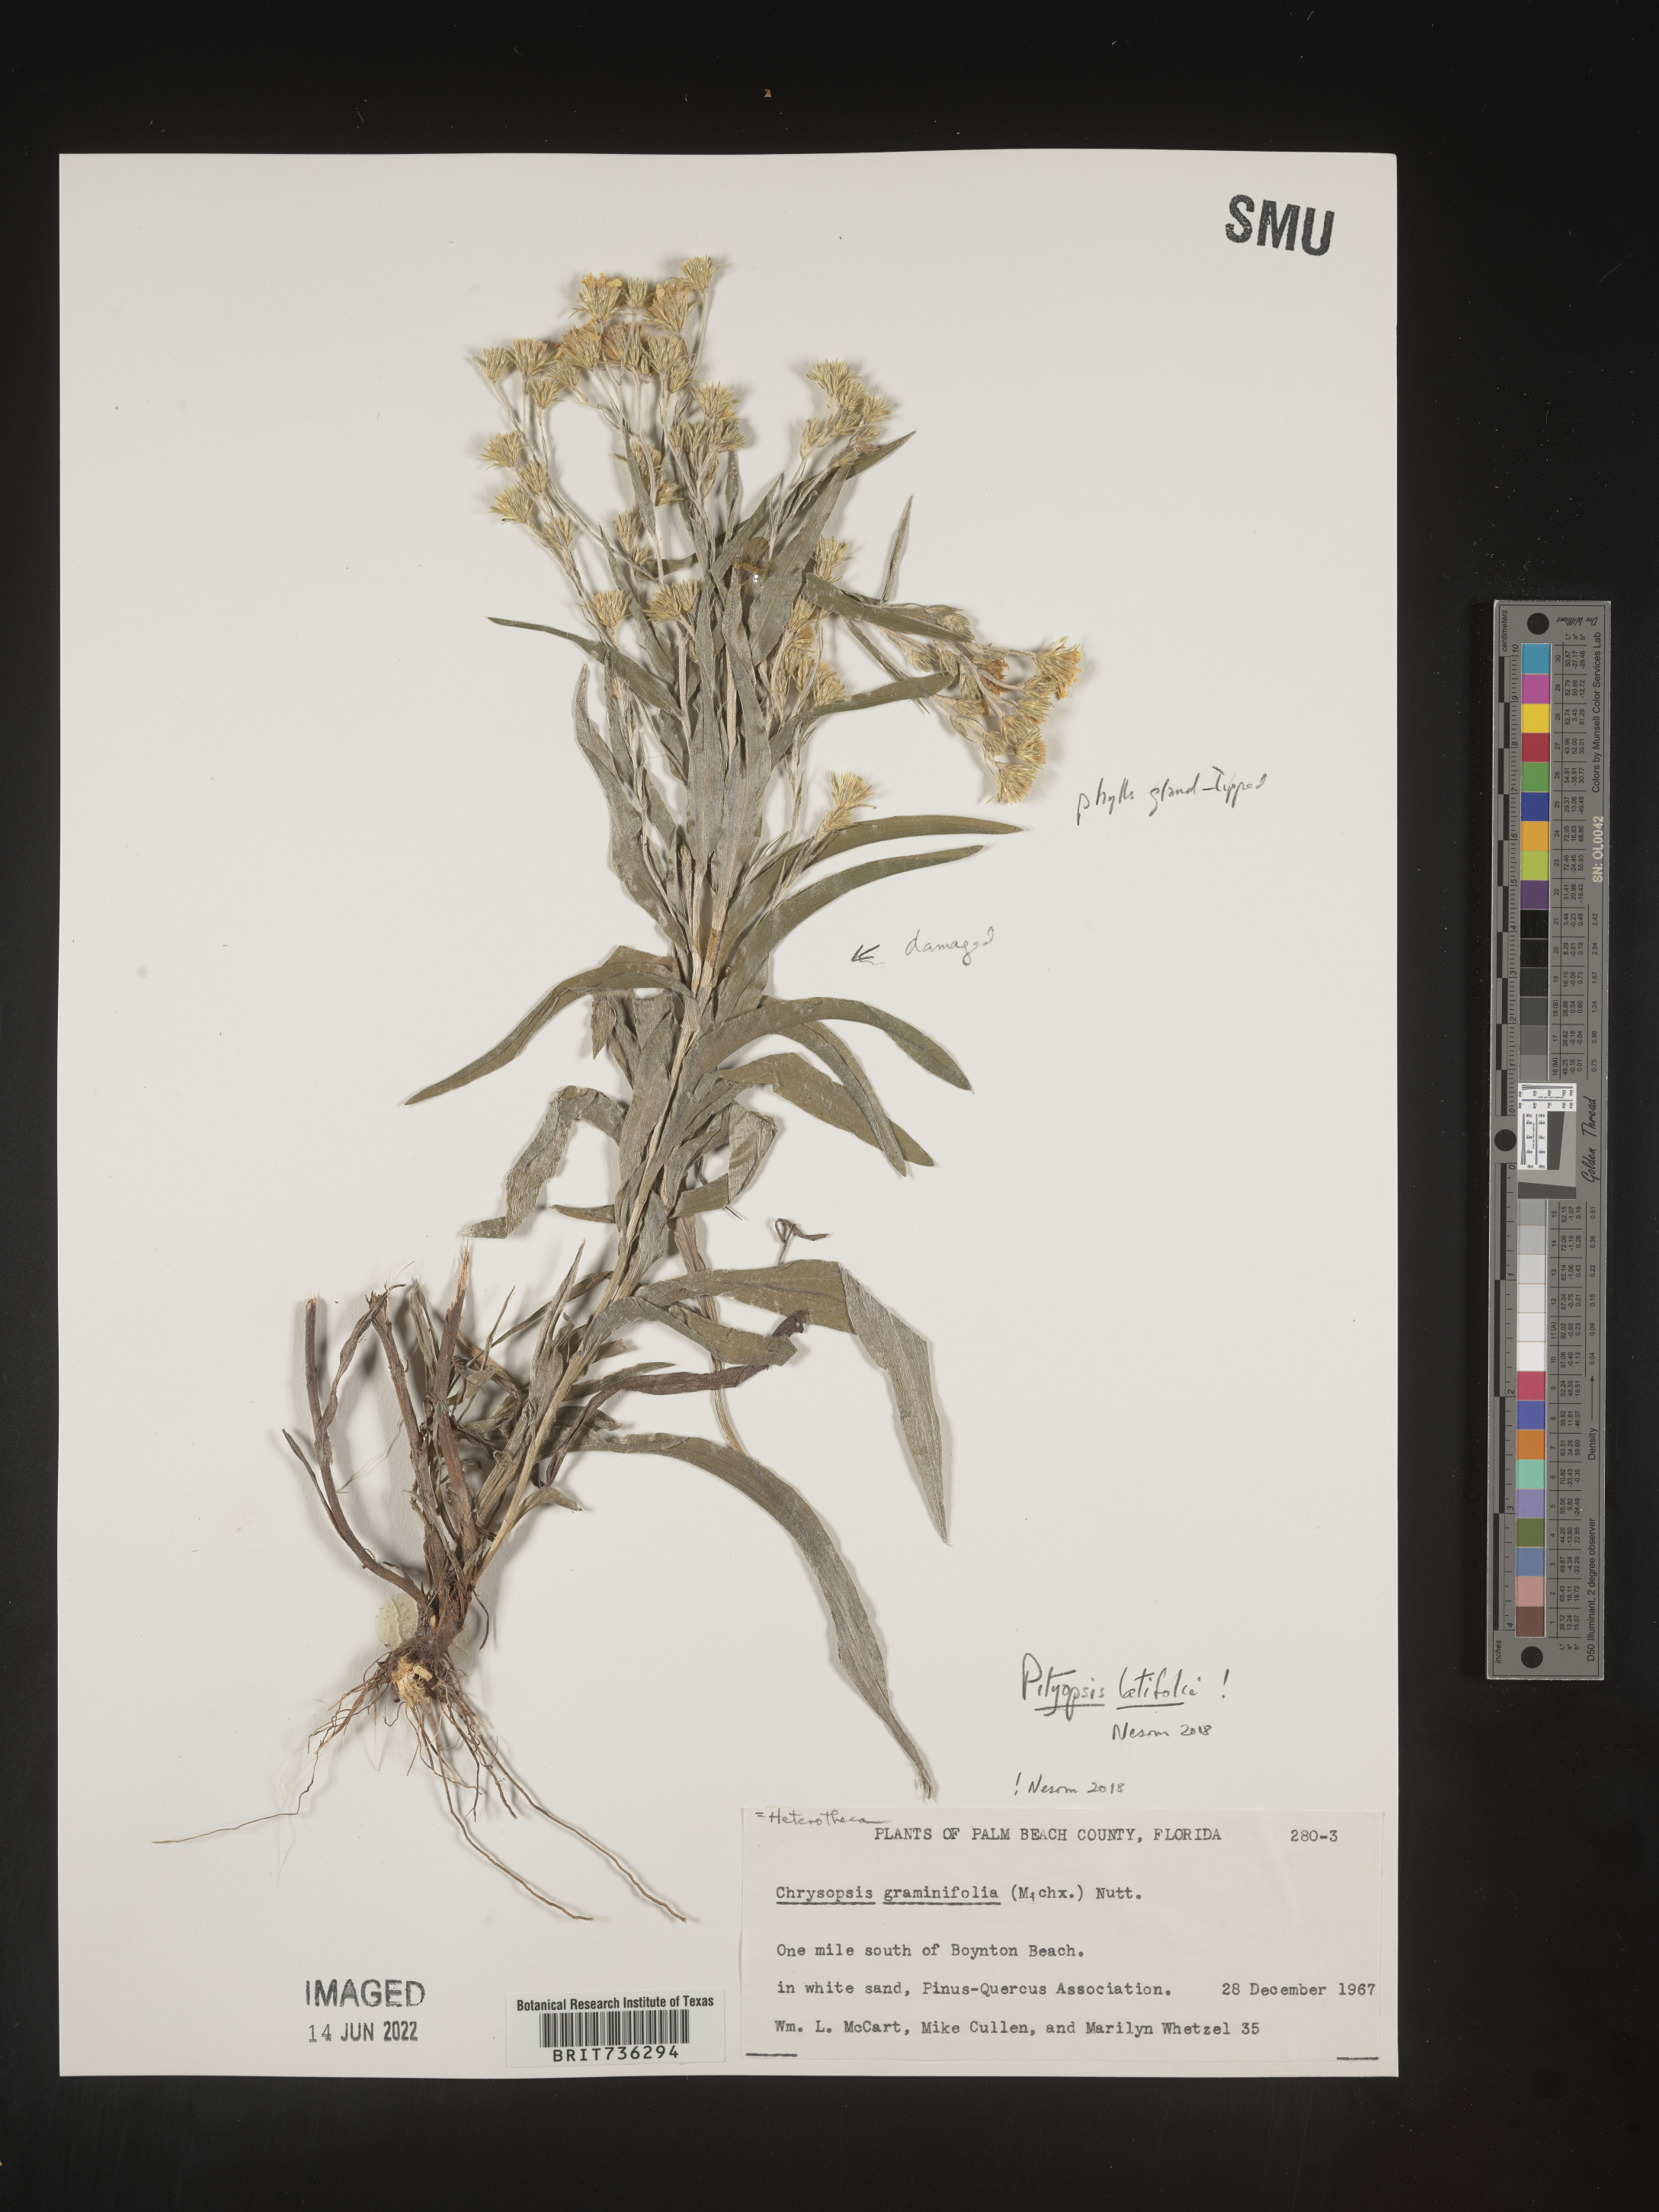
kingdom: Plantae
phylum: Tracheophyta
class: Magnoliopsida
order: Asterales
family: Asteraceae
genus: Pityopsis
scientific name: Pityopsis latifolia
